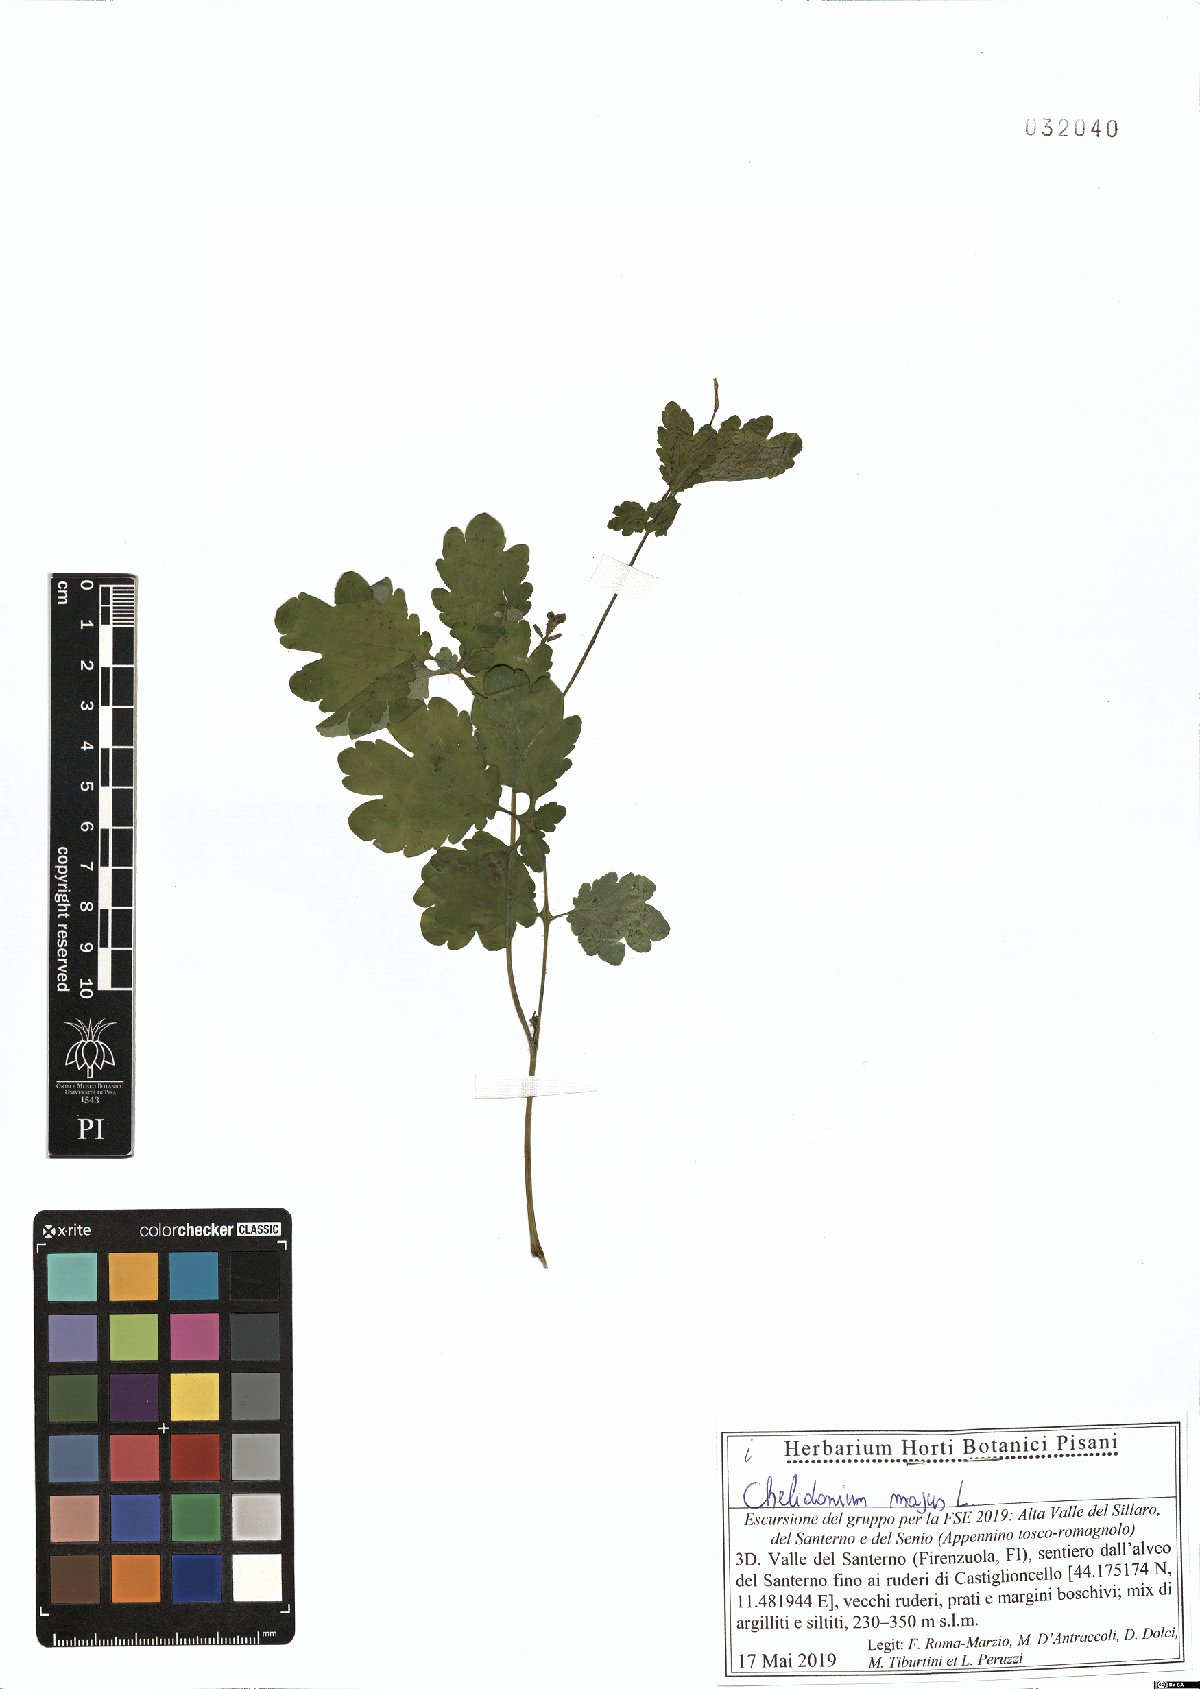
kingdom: Plantae
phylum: Tracheophyta
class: Magnoliopsida
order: Ranunculales
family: Papaveraceae
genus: Chelidonium
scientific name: Chelidonium majus
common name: Greater celandine
